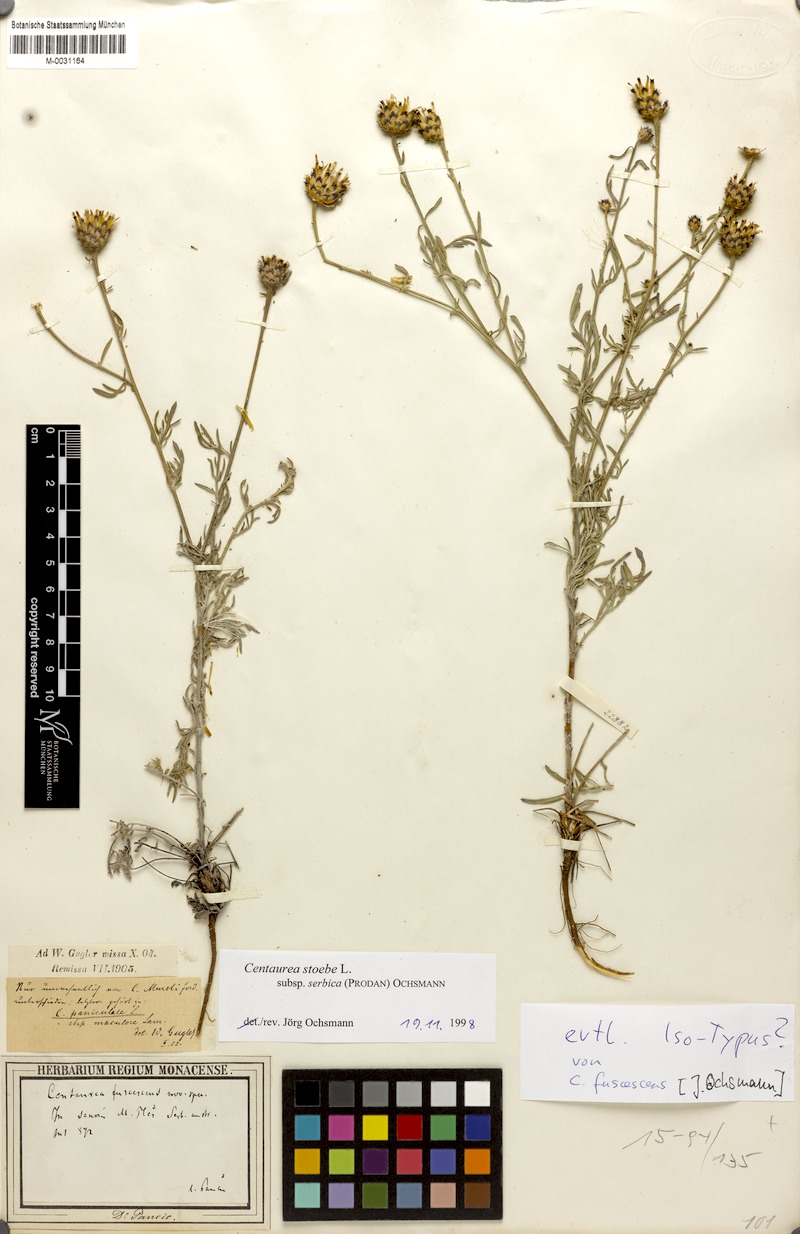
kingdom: Plantae
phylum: Tracheophyta
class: Magnoliopsida
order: Asterales
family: Asteraceae
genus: Centaurea
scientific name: Centaurea sicula
